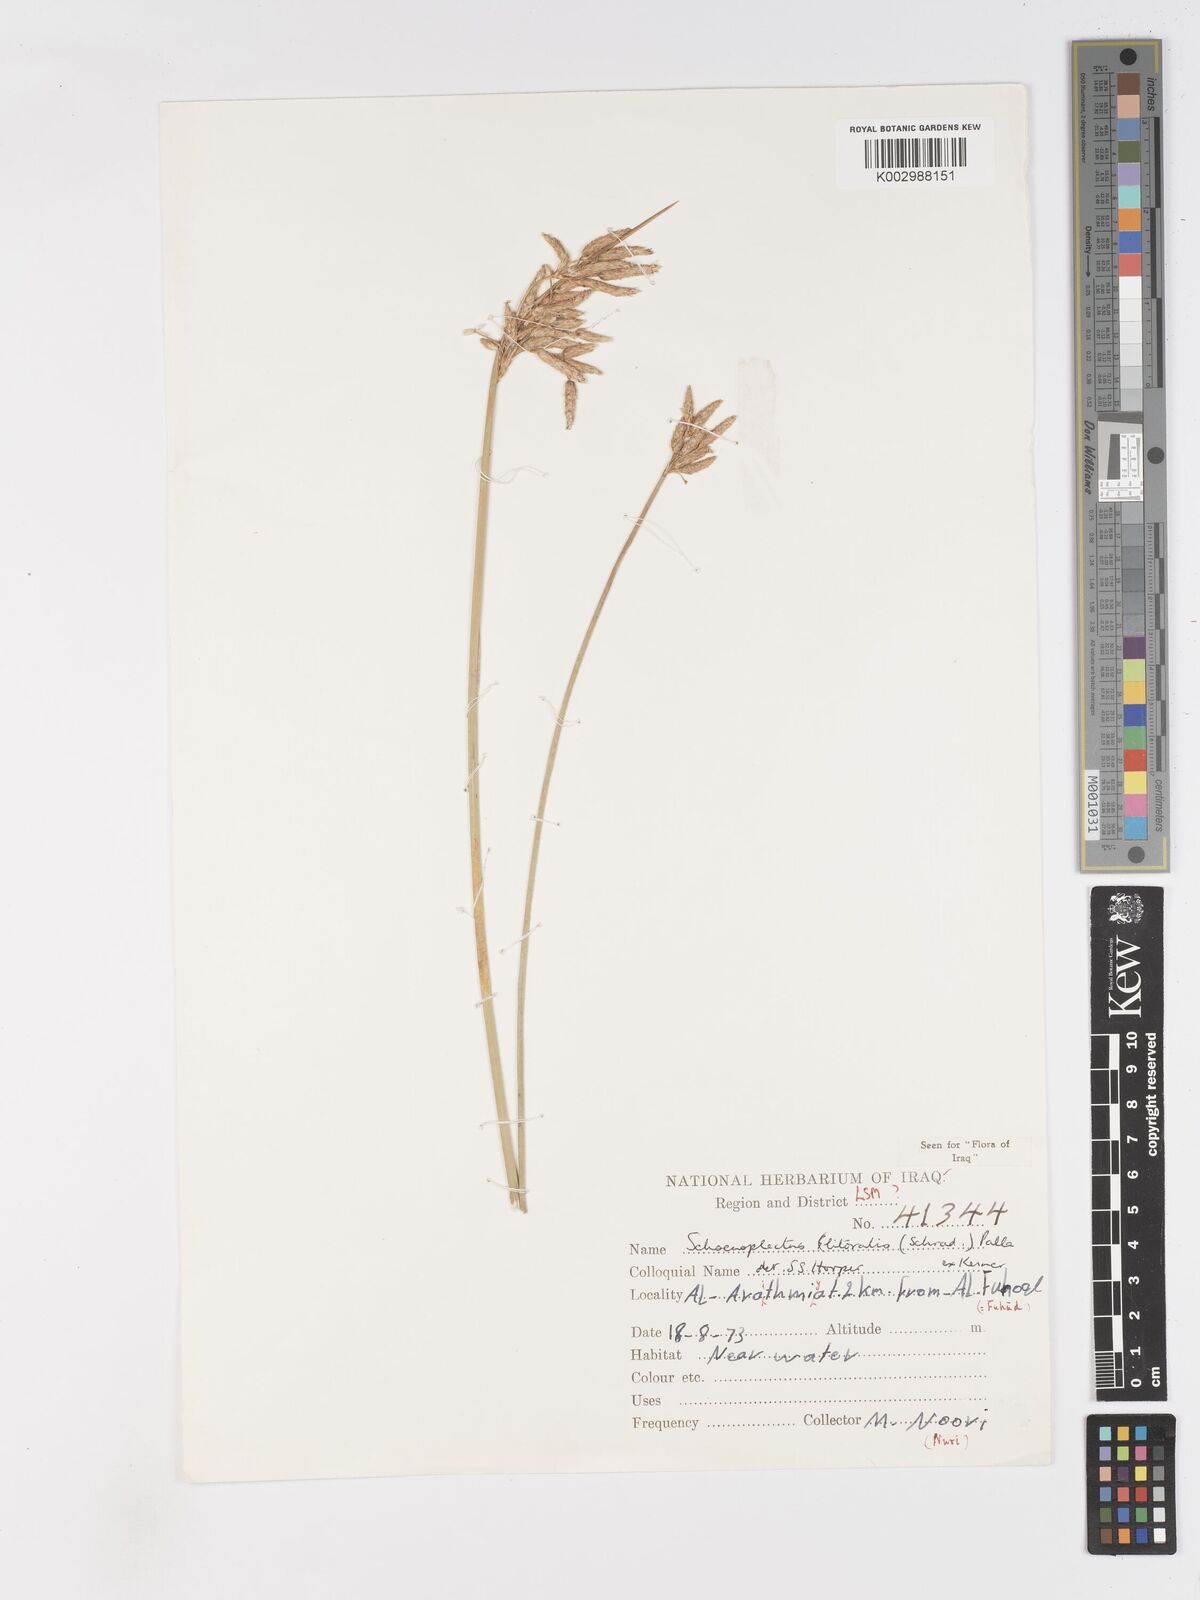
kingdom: Plantae
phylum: Tracheophyta
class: Liliopsida
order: Poales
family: Cyperaceae
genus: Schoenoplectus
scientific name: Schoenoplectus litoralis
